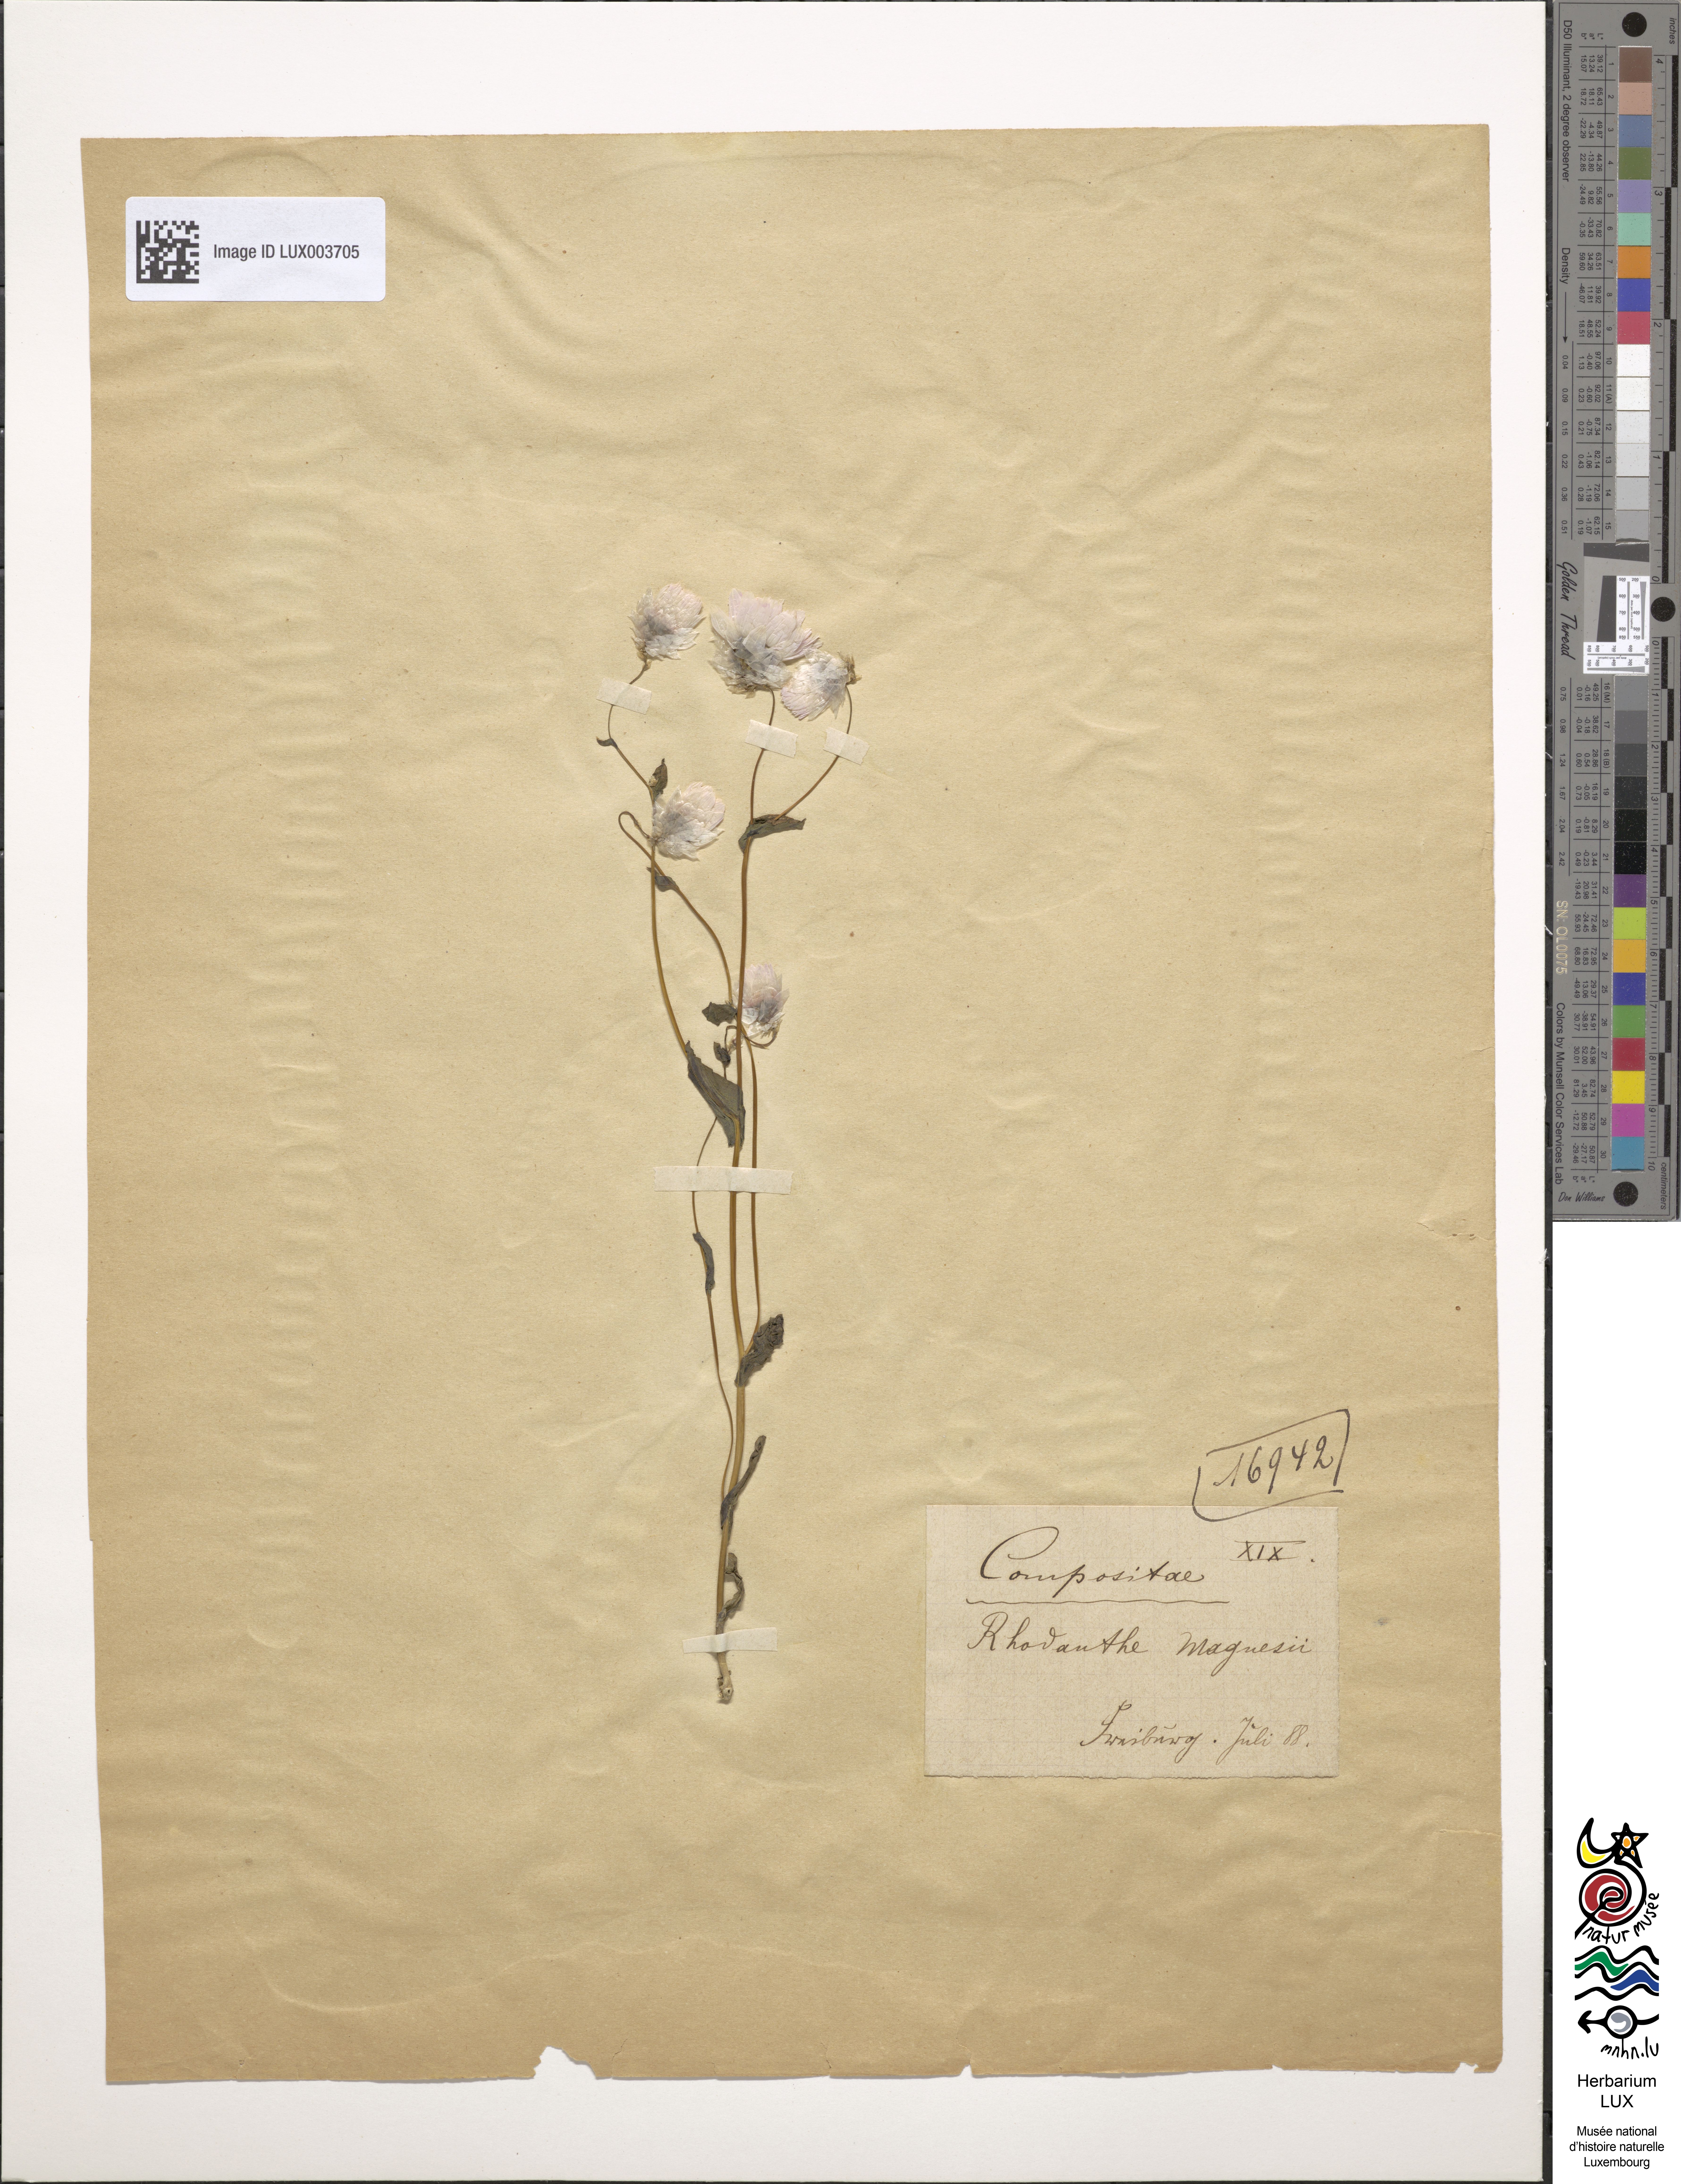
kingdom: Plantae
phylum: Tracheophyta
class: Magnoliopsida
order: Asterales
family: Asteraceae
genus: Rhodanthe
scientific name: Rhodanthe manglesii
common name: Pink sunray
